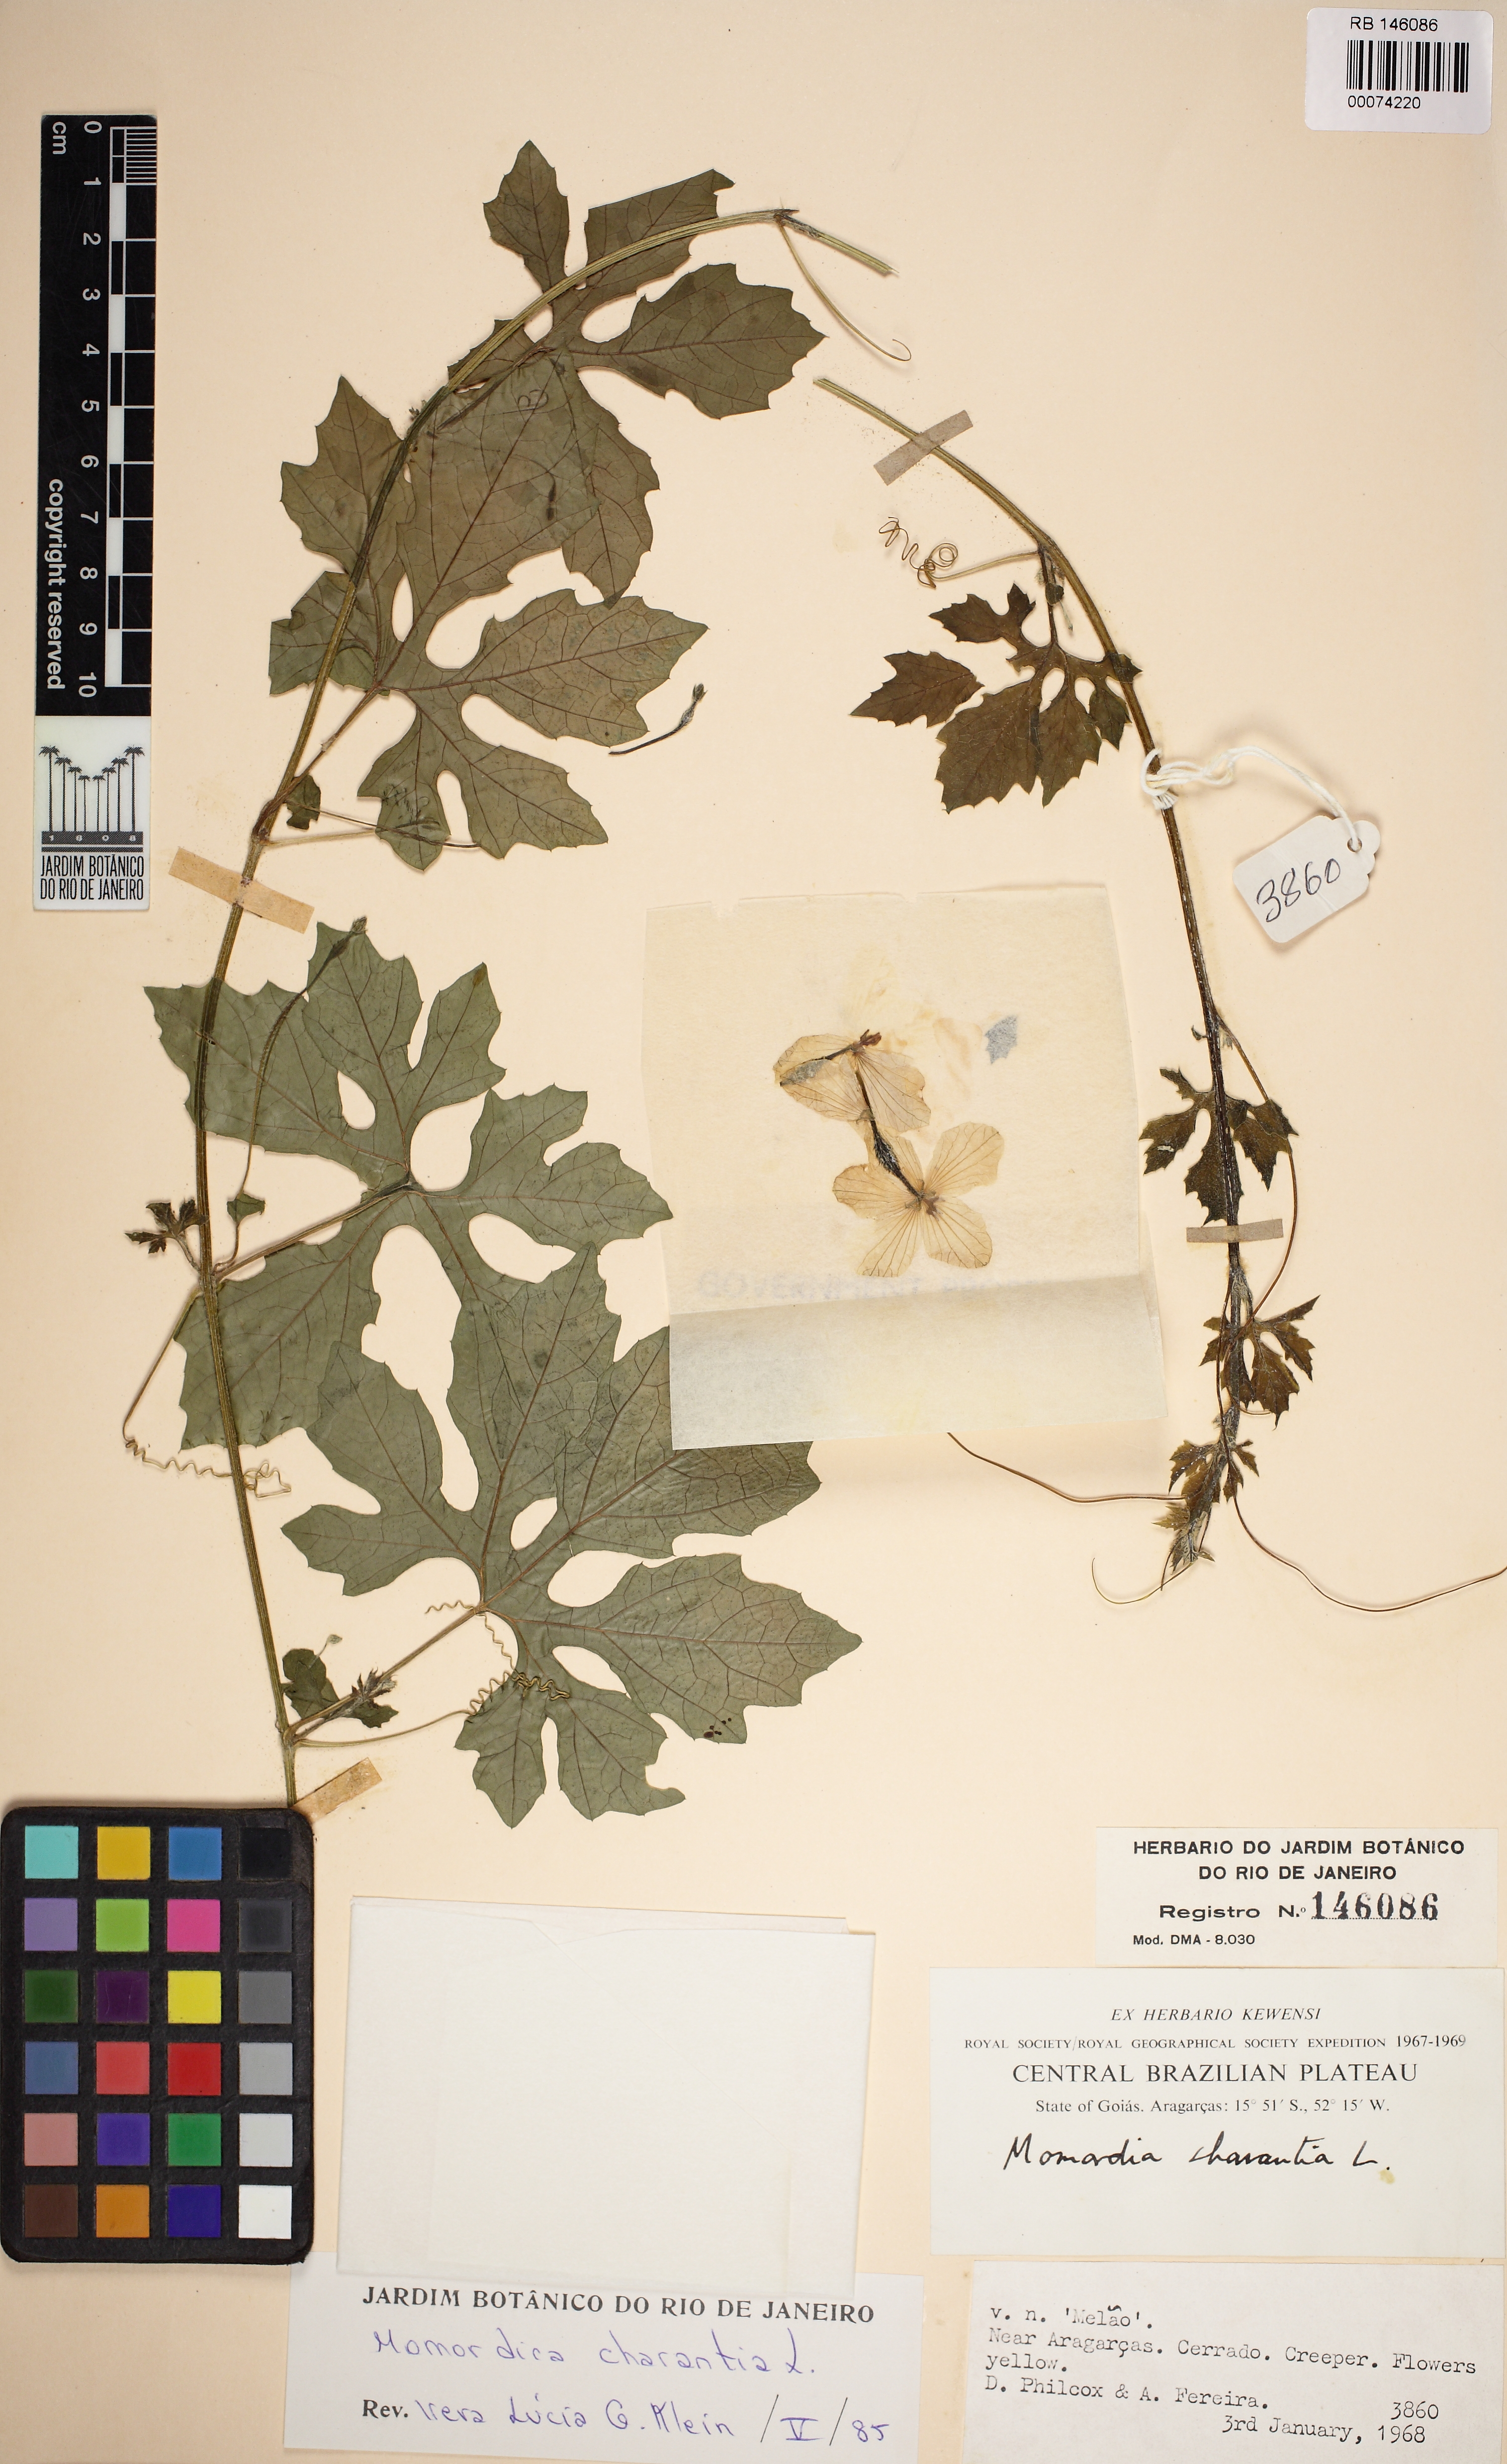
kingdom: Plantae
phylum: Tracheophyta
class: Magnoliopsida
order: Cucurbitales
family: Cucurbitaceae
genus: Momordica
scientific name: Momordica charantia
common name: Balsampear
